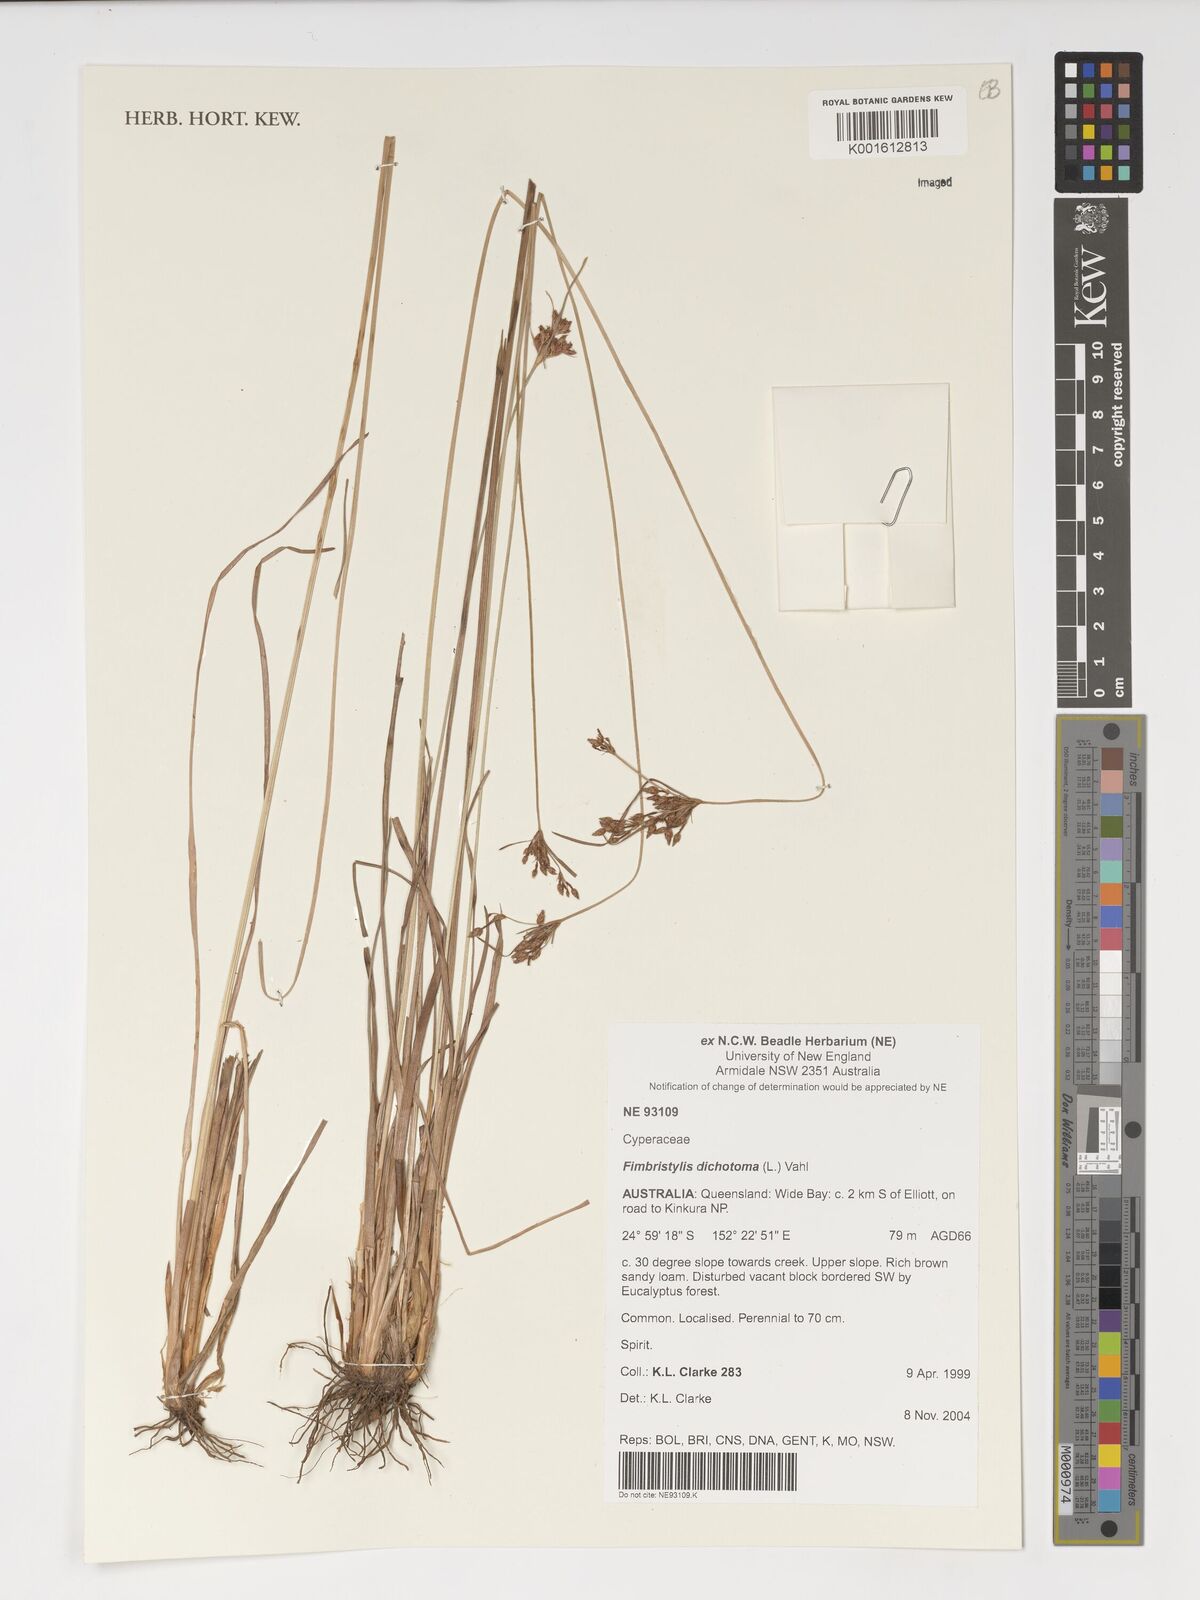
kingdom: Plantae
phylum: Tracheophyta
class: Liliopsida
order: Poales
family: Cyperaceae
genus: Fimbristylis
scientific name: Fimbristylis dichotoma
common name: Forked fimbry
